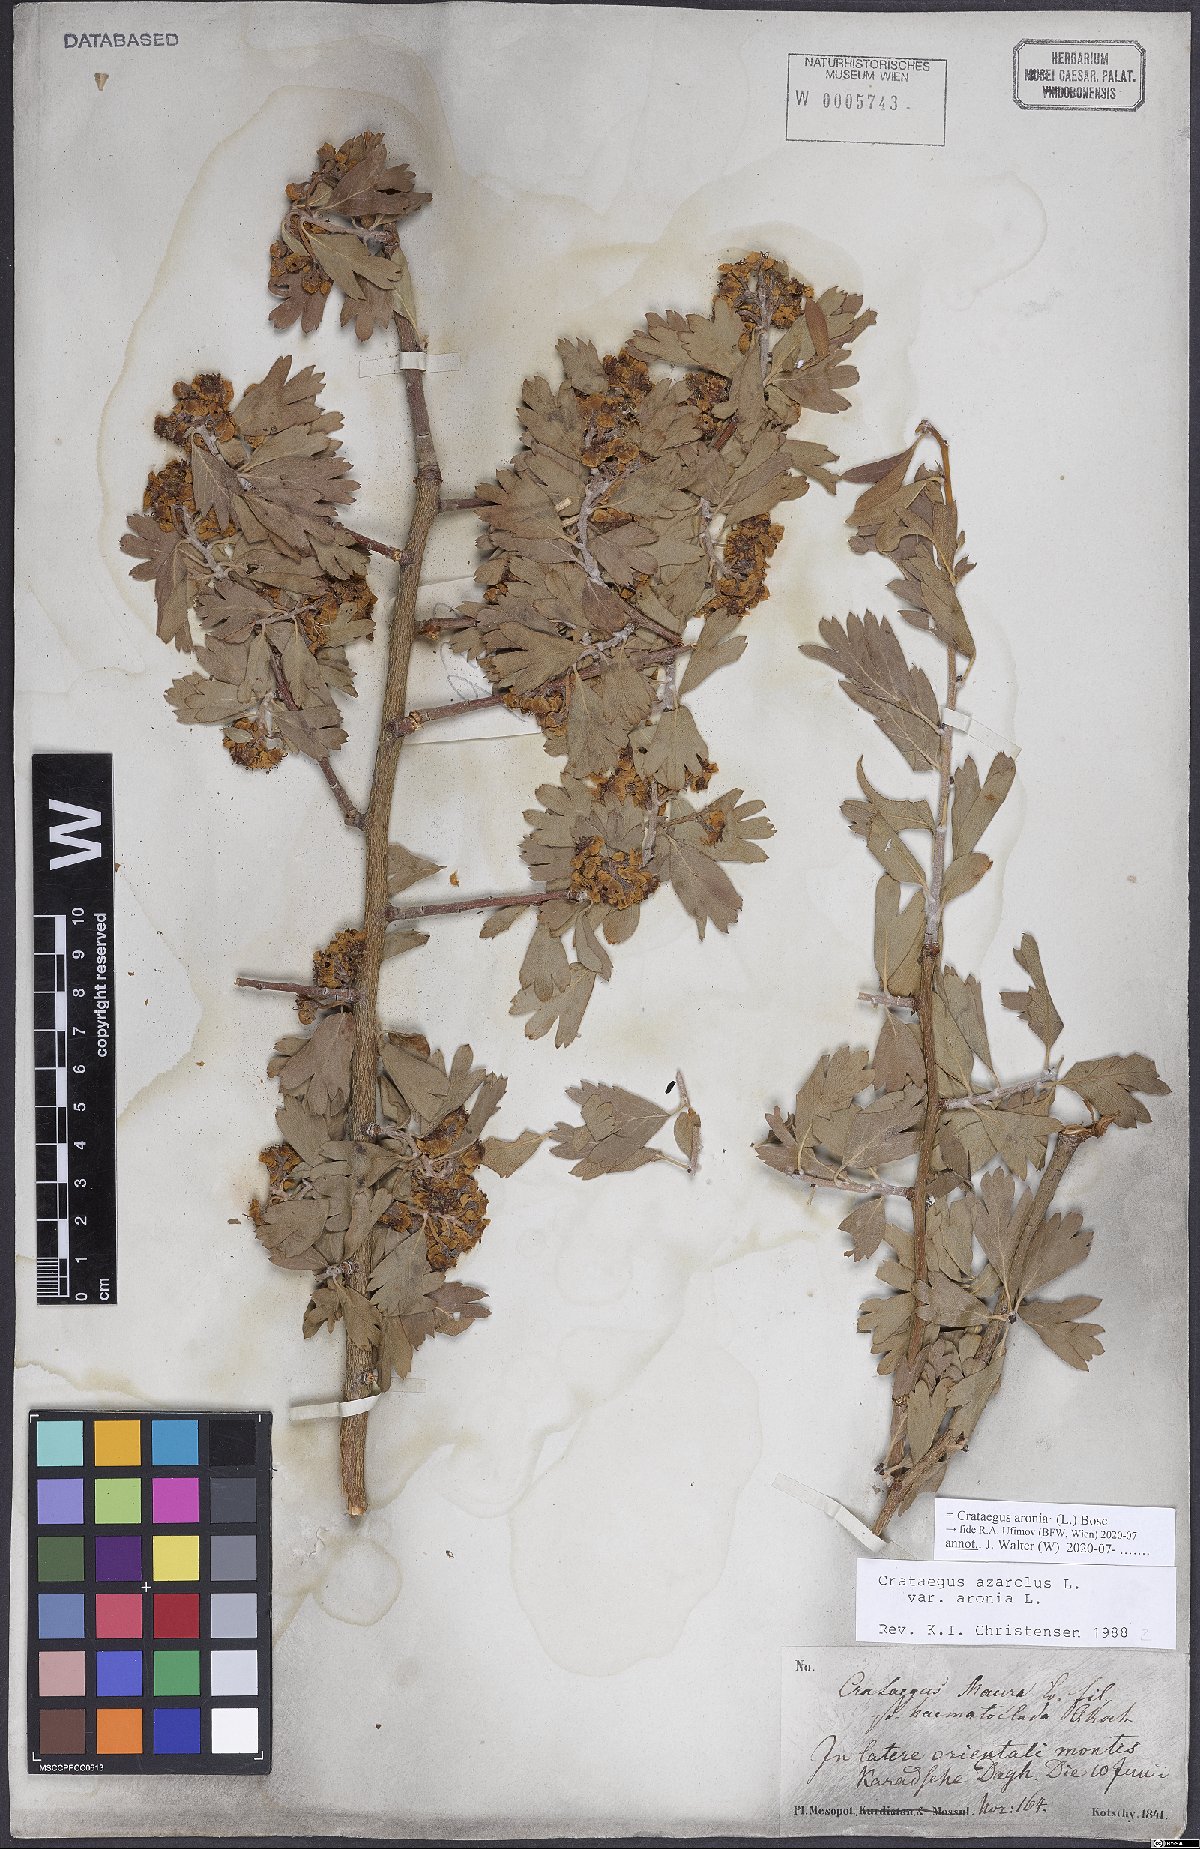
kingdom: Plantae
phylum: Tracheophyta
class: Magnoliopsida
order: Rosales
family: Rosaceae
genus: Crataegus
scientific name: Crataegus azarolus
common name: Azarole
